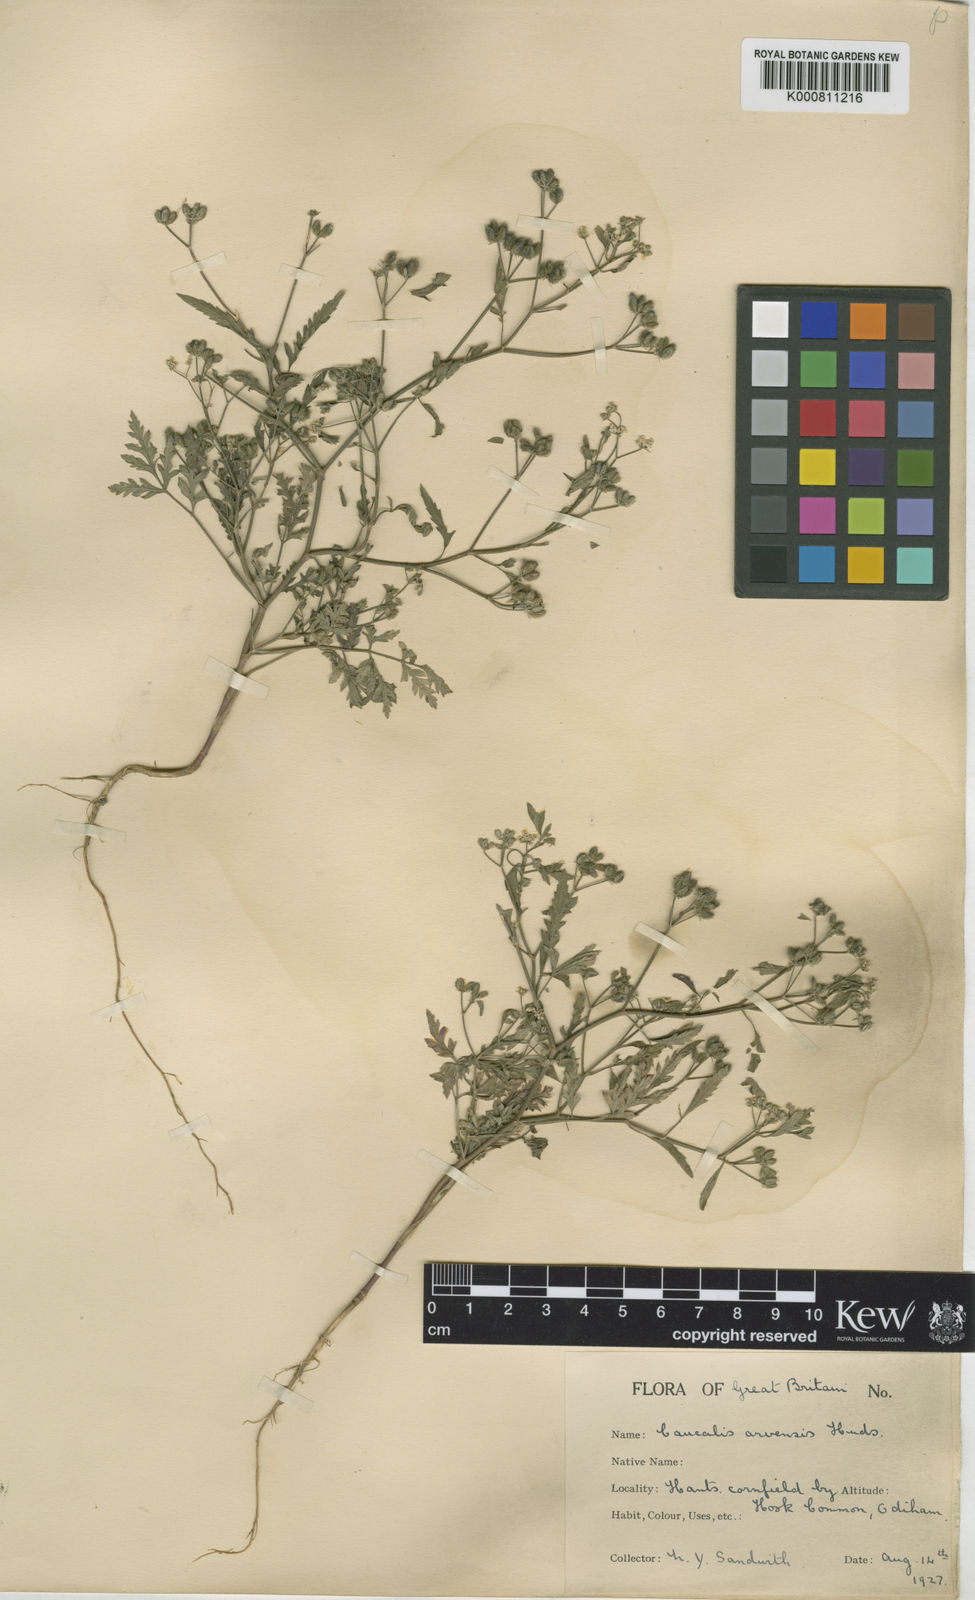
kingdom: Plantae
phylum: Tracheophyta
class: Magnoliopsida
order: Apiales
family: Apiaceae
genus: Torilis
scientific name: Torilis arvensis
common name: Spreading hedge-parsley
